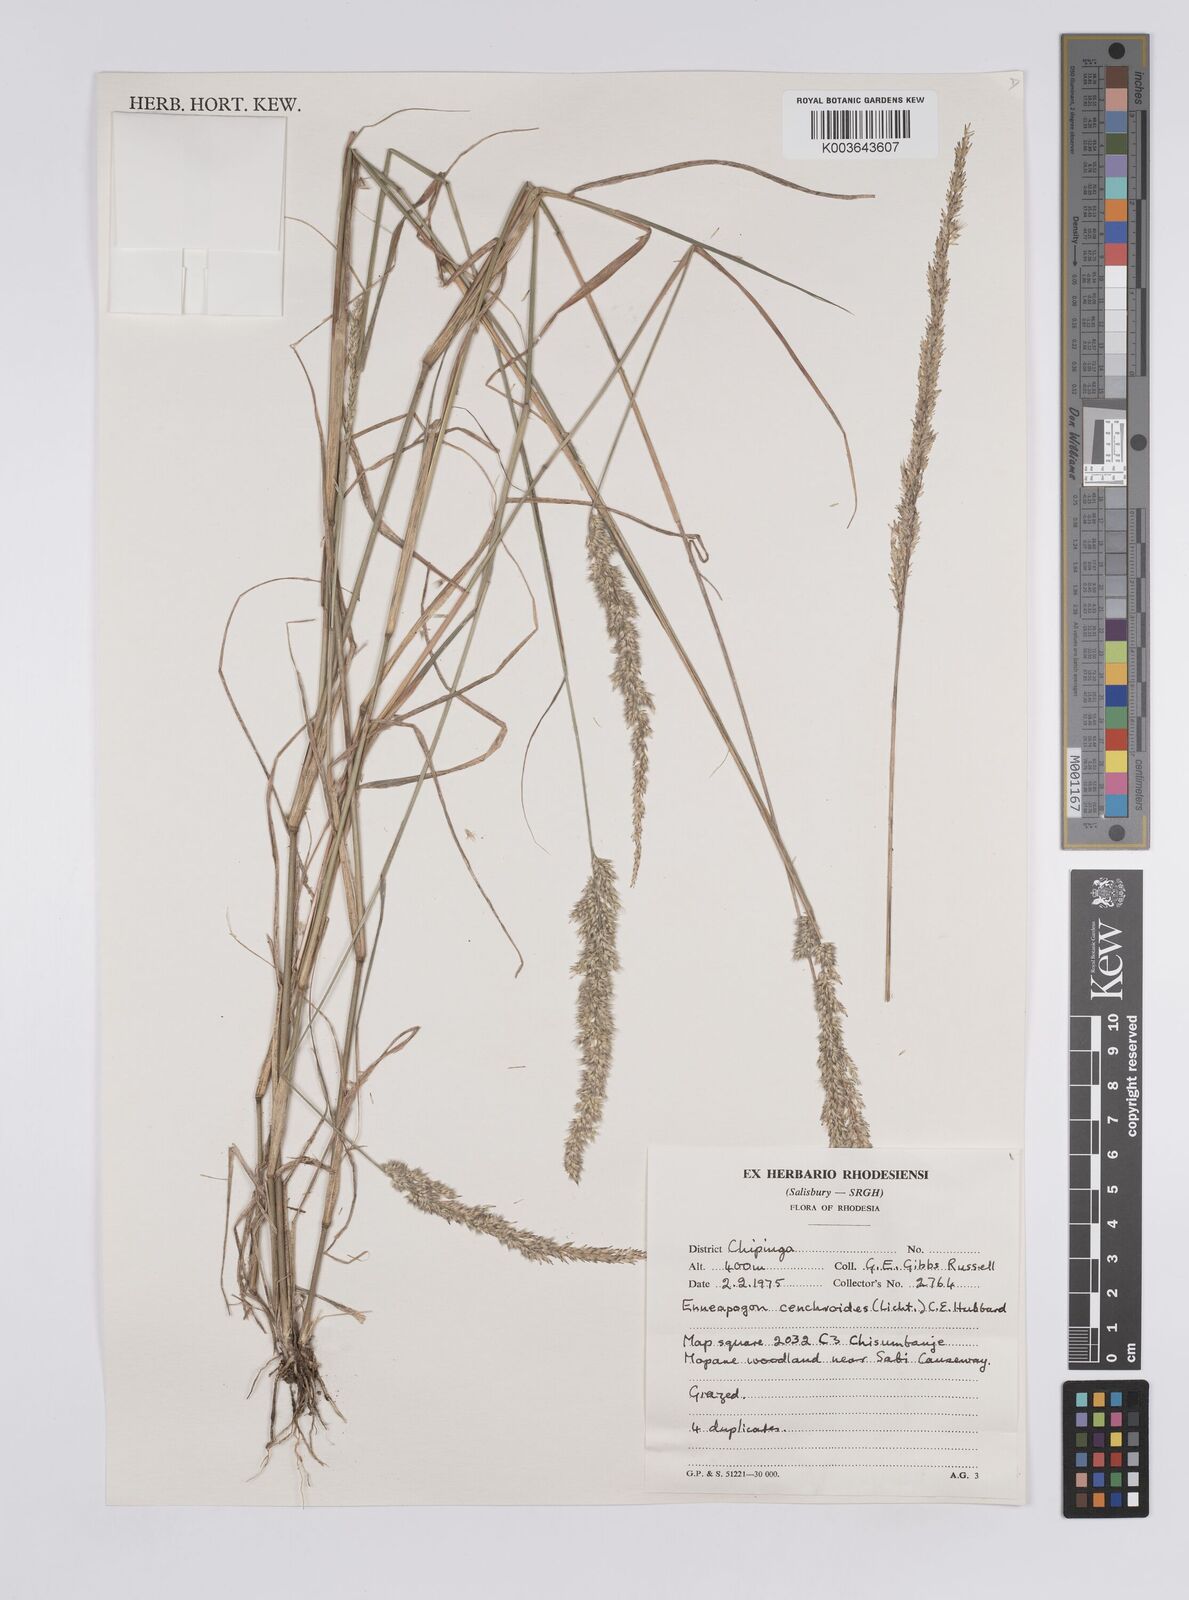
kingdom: Plantae
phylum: Tracheophyta
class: Liliopsida
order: Poales
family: Poaceae
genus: Enneapogon
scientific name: Enneapogon cenchroides
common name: Soft feather pappusgrass
